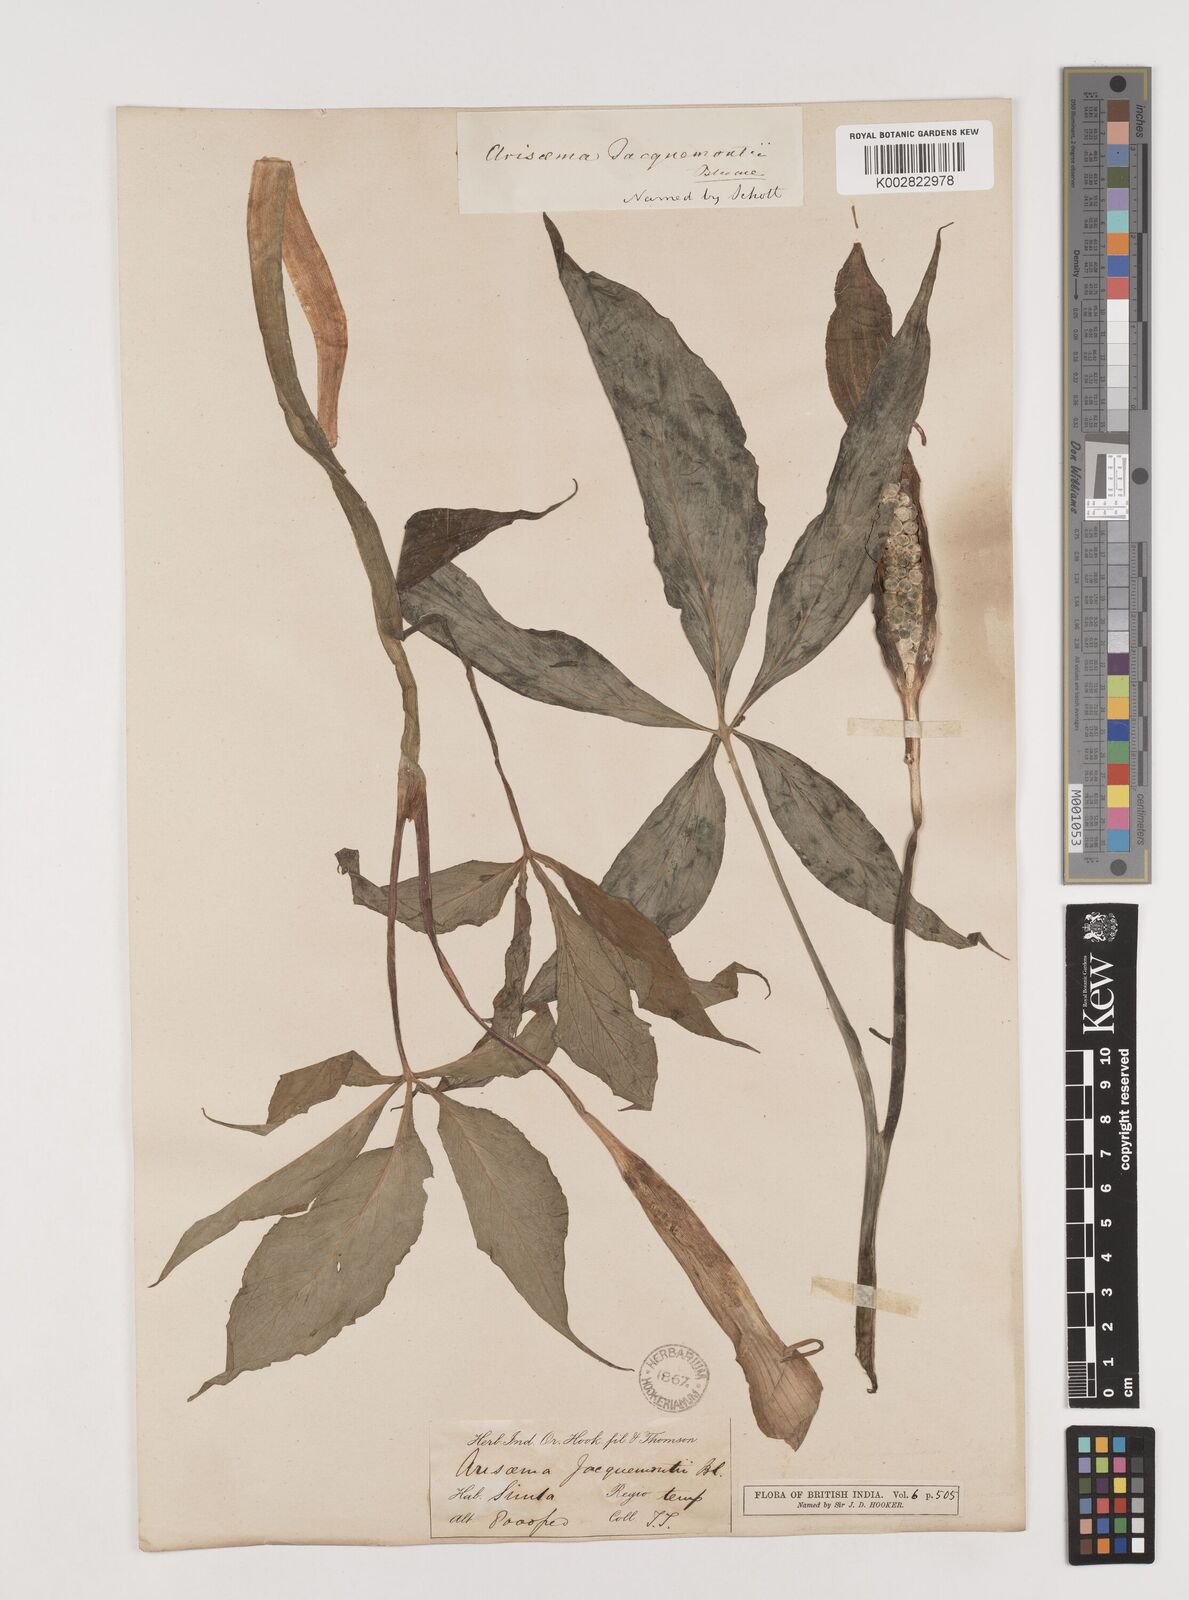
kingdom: Plantae
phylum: Tracheophyta
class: Liliopsida
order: Alismatales
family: Araceae
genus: Arisaema
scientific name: Arisaema jacquemontii
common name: Jacquemont's cobra-lily
